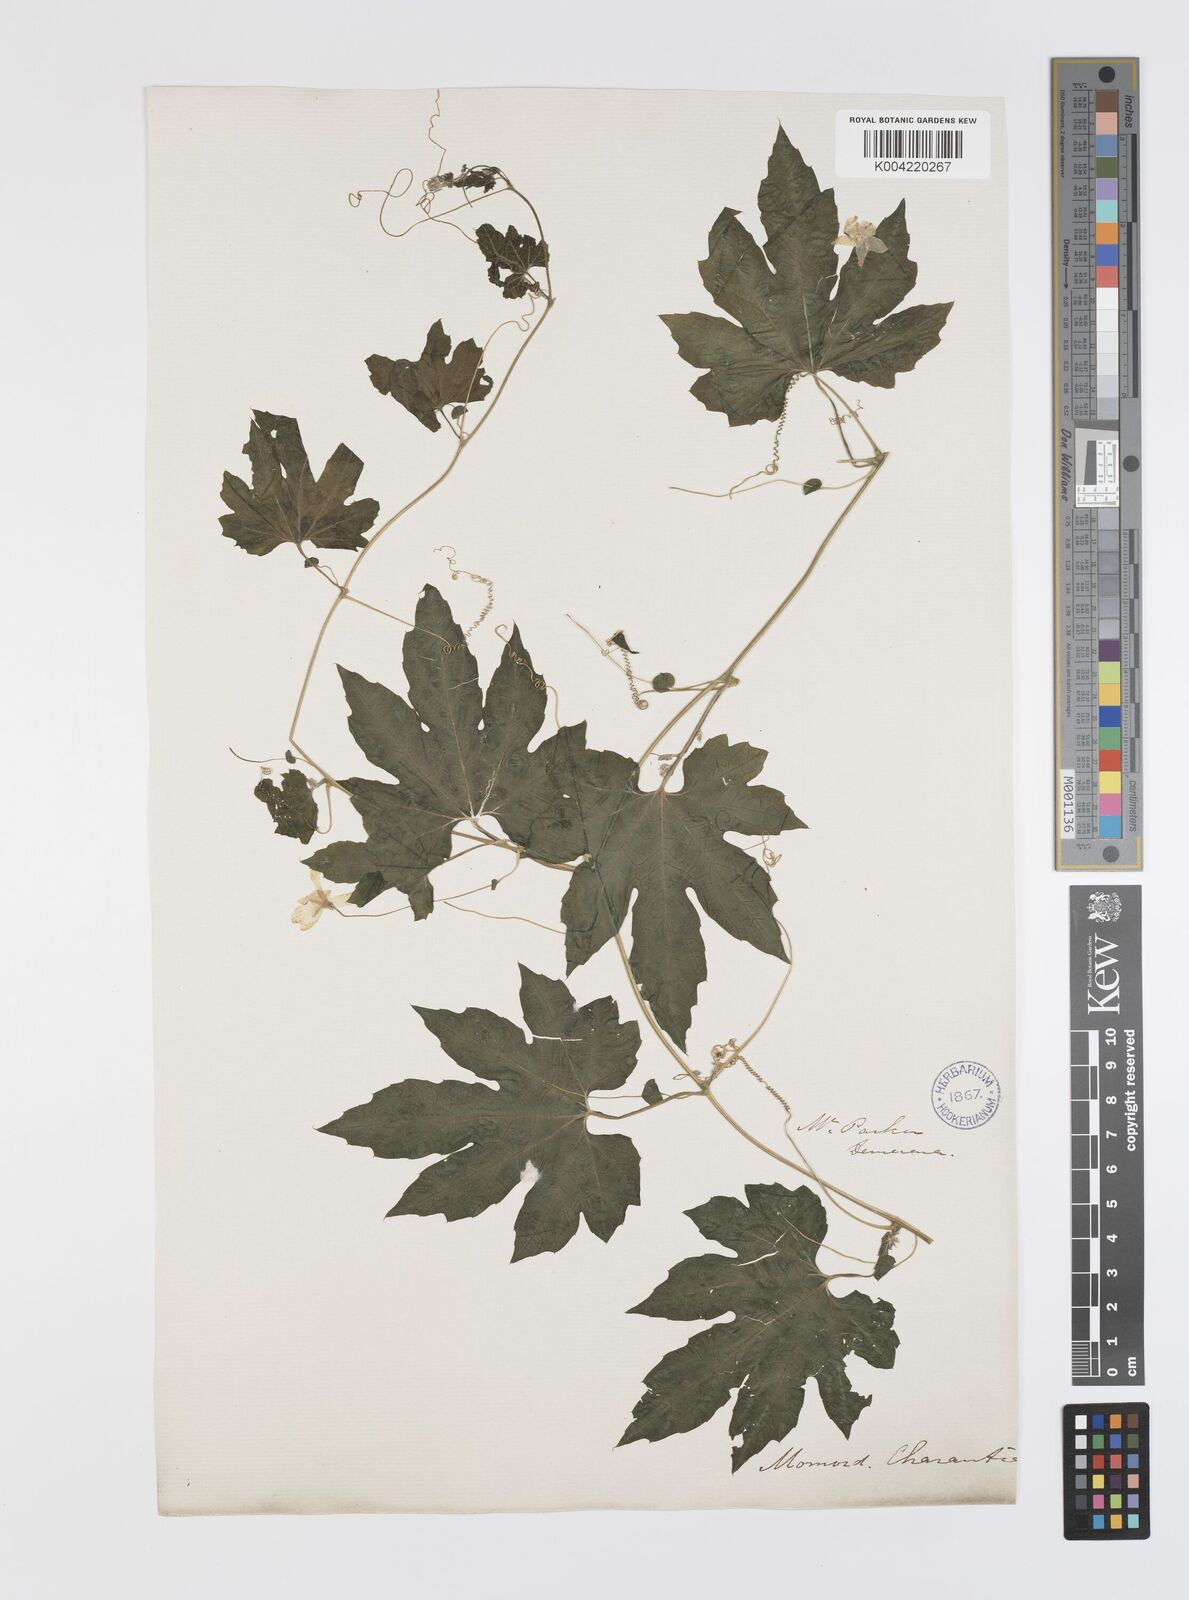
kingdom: Plantae
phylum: Tracheophyta
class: Magnoliopsida
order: Cucurbitales
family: Cucurbitaceae
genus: Momordica
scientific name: Momordica charantia
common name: Balsampear
